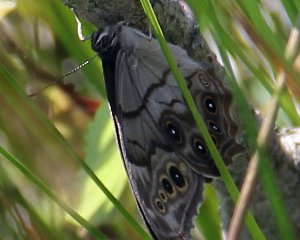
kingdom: Animalia
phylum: Arthropoda
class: Insecta
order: Lepidoptera
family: Nymphalidae
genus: Lethe
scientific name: Lethe anthedon
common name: Northern Pearly-Eye
